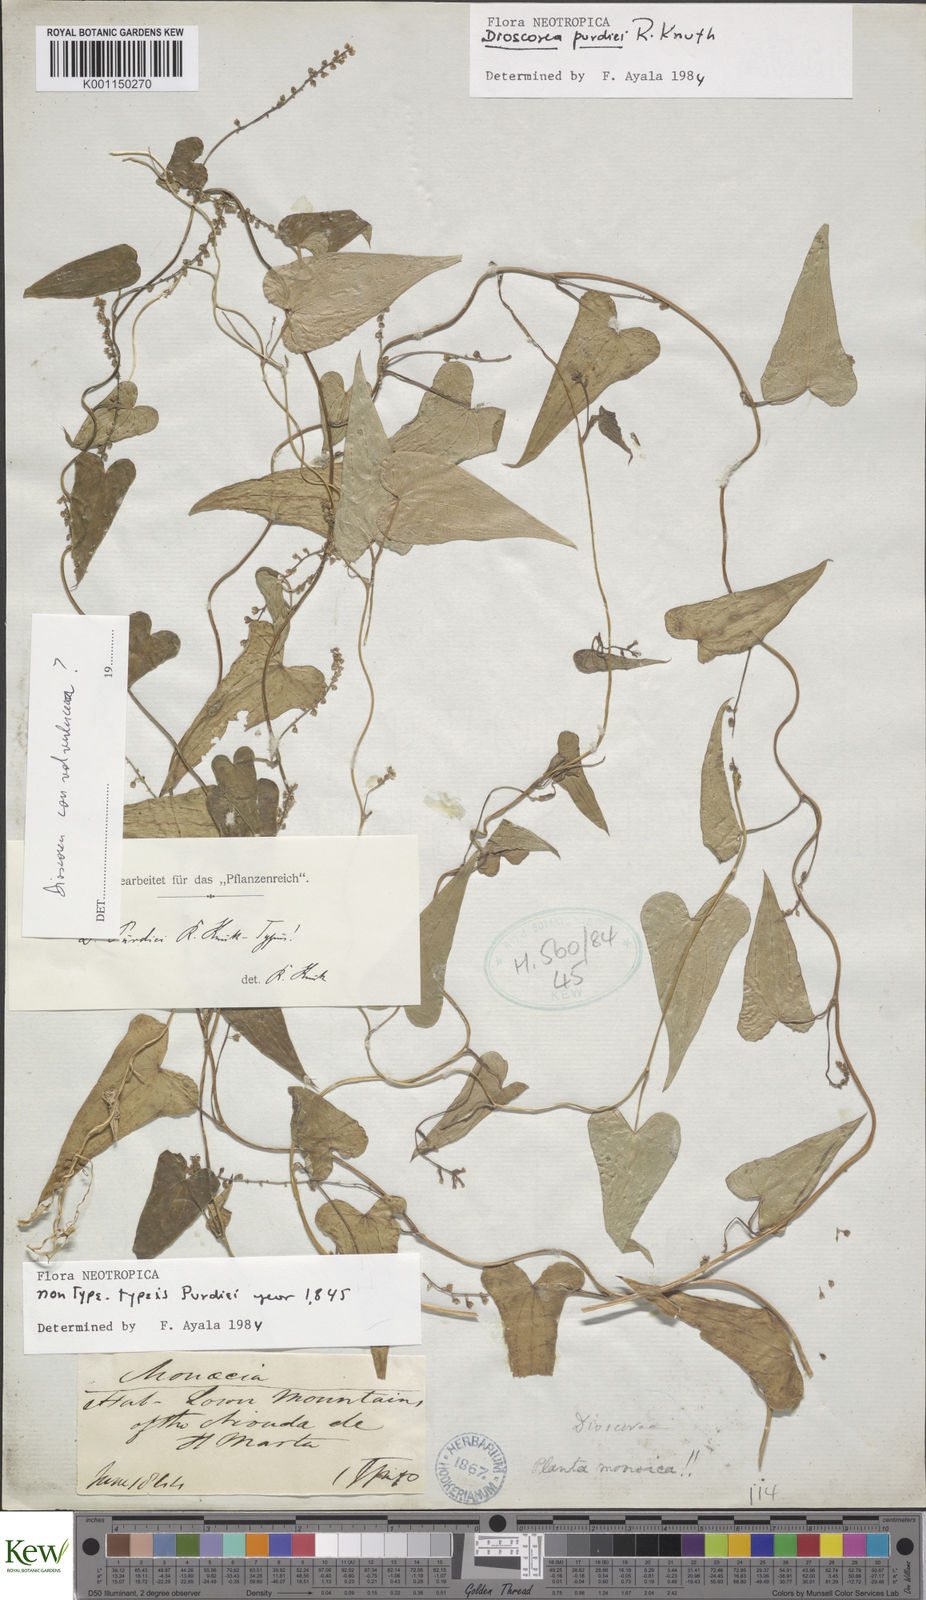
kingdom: Plantae
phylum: Tracheophyta
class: Liliopsida
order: Dioscoreales
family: Dioscoreaceae
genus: Dioscorea
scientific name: Dioscorea purdiei
